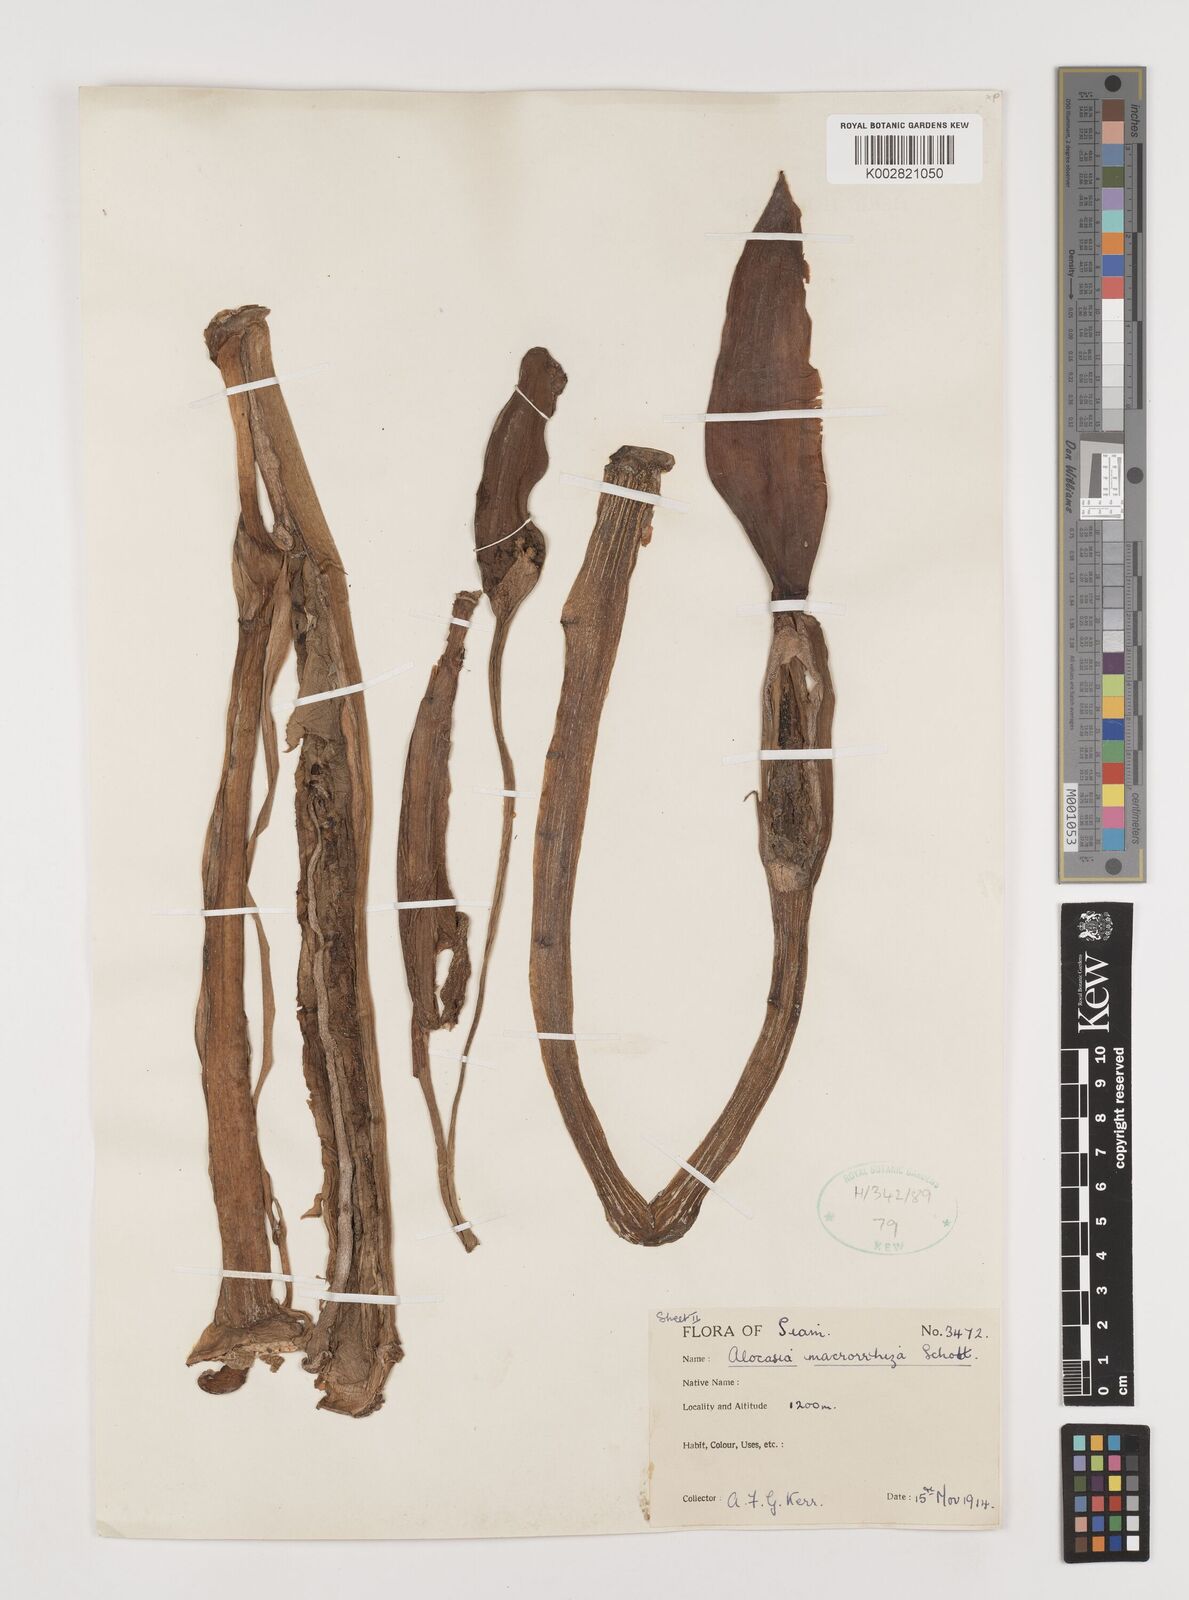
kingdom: Plantae
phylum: Tracheophyta
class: Liliopsida
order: Alismatales
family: Araceae
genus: Alocasia
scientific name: Alocasia macrorrhizos
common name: Giant taro
